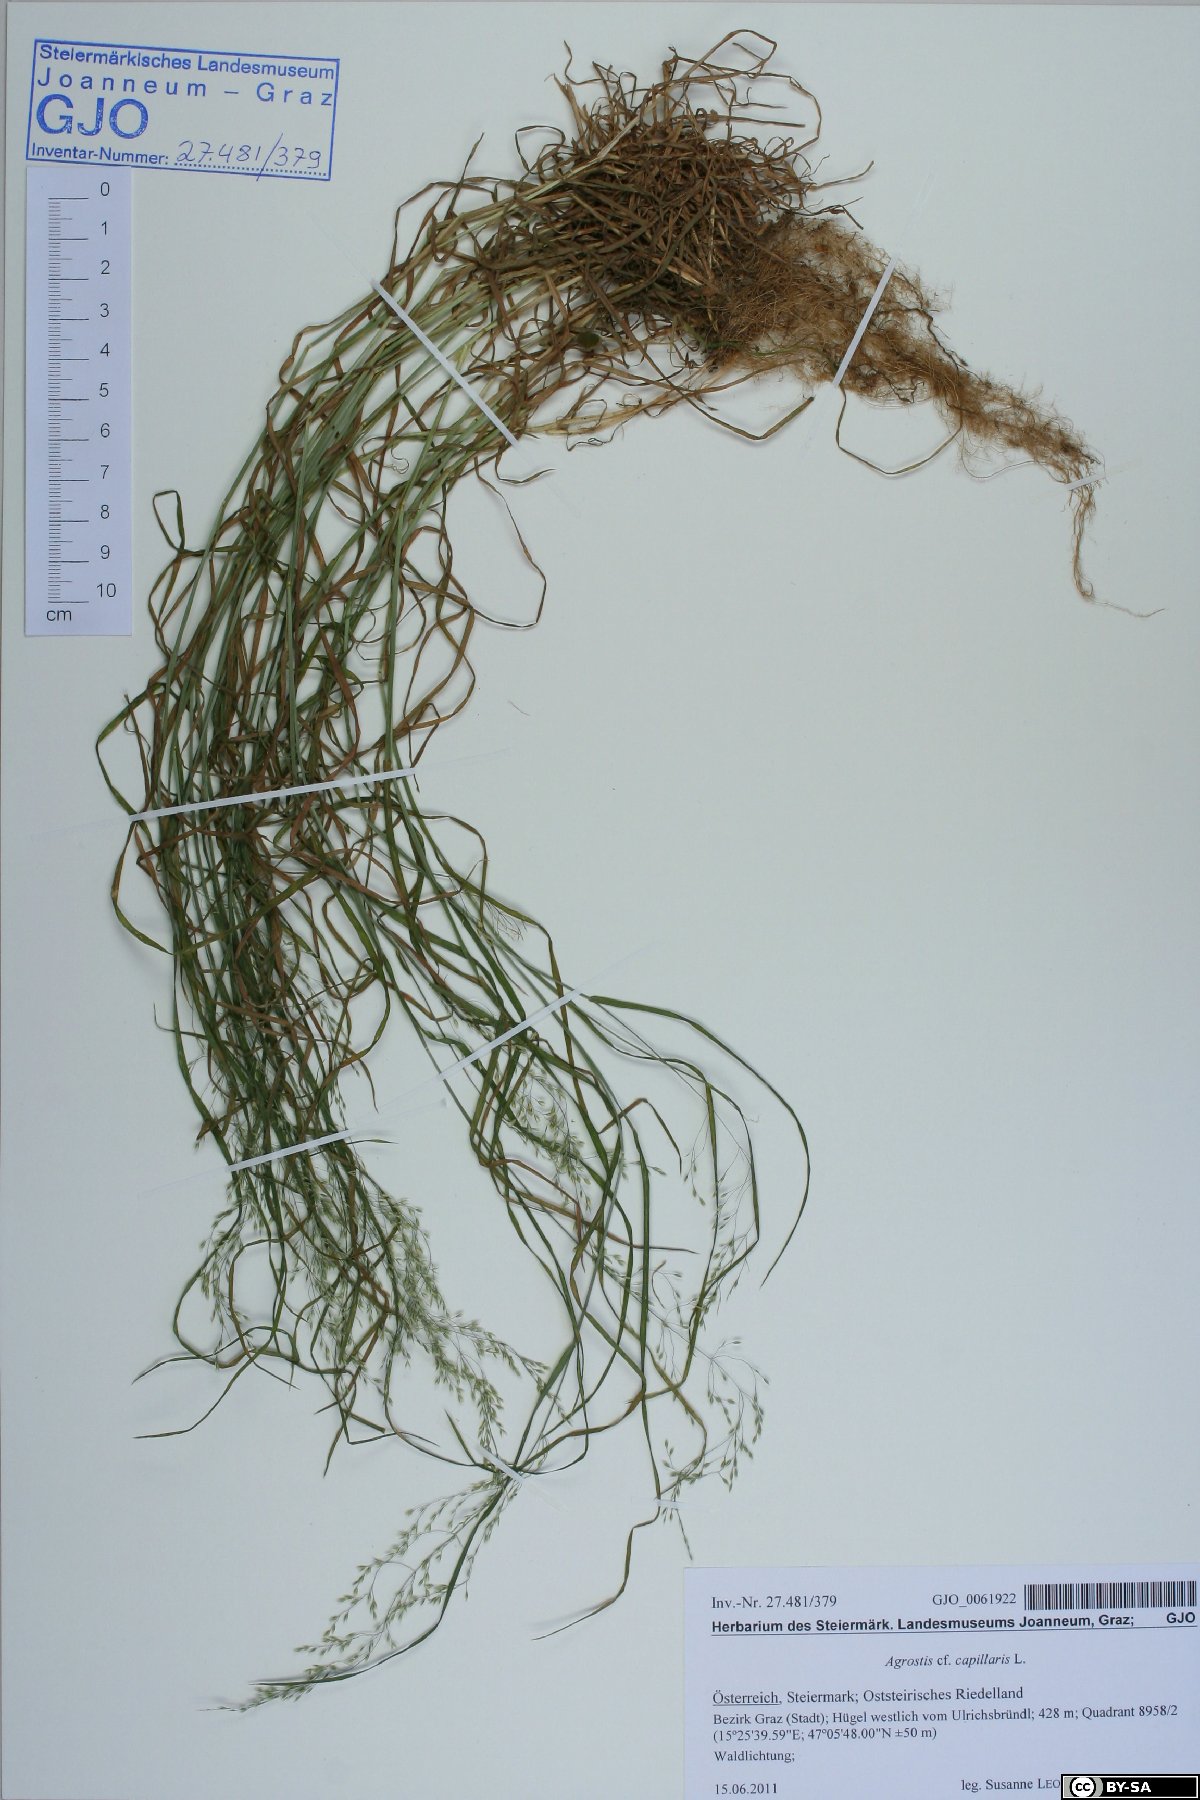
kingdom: Plantae
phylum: Tracheophyta
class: Liliopsida
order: Poales
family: Poaceae
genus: Poa
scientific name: Poa nemoralis
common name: Wood bluegrass
